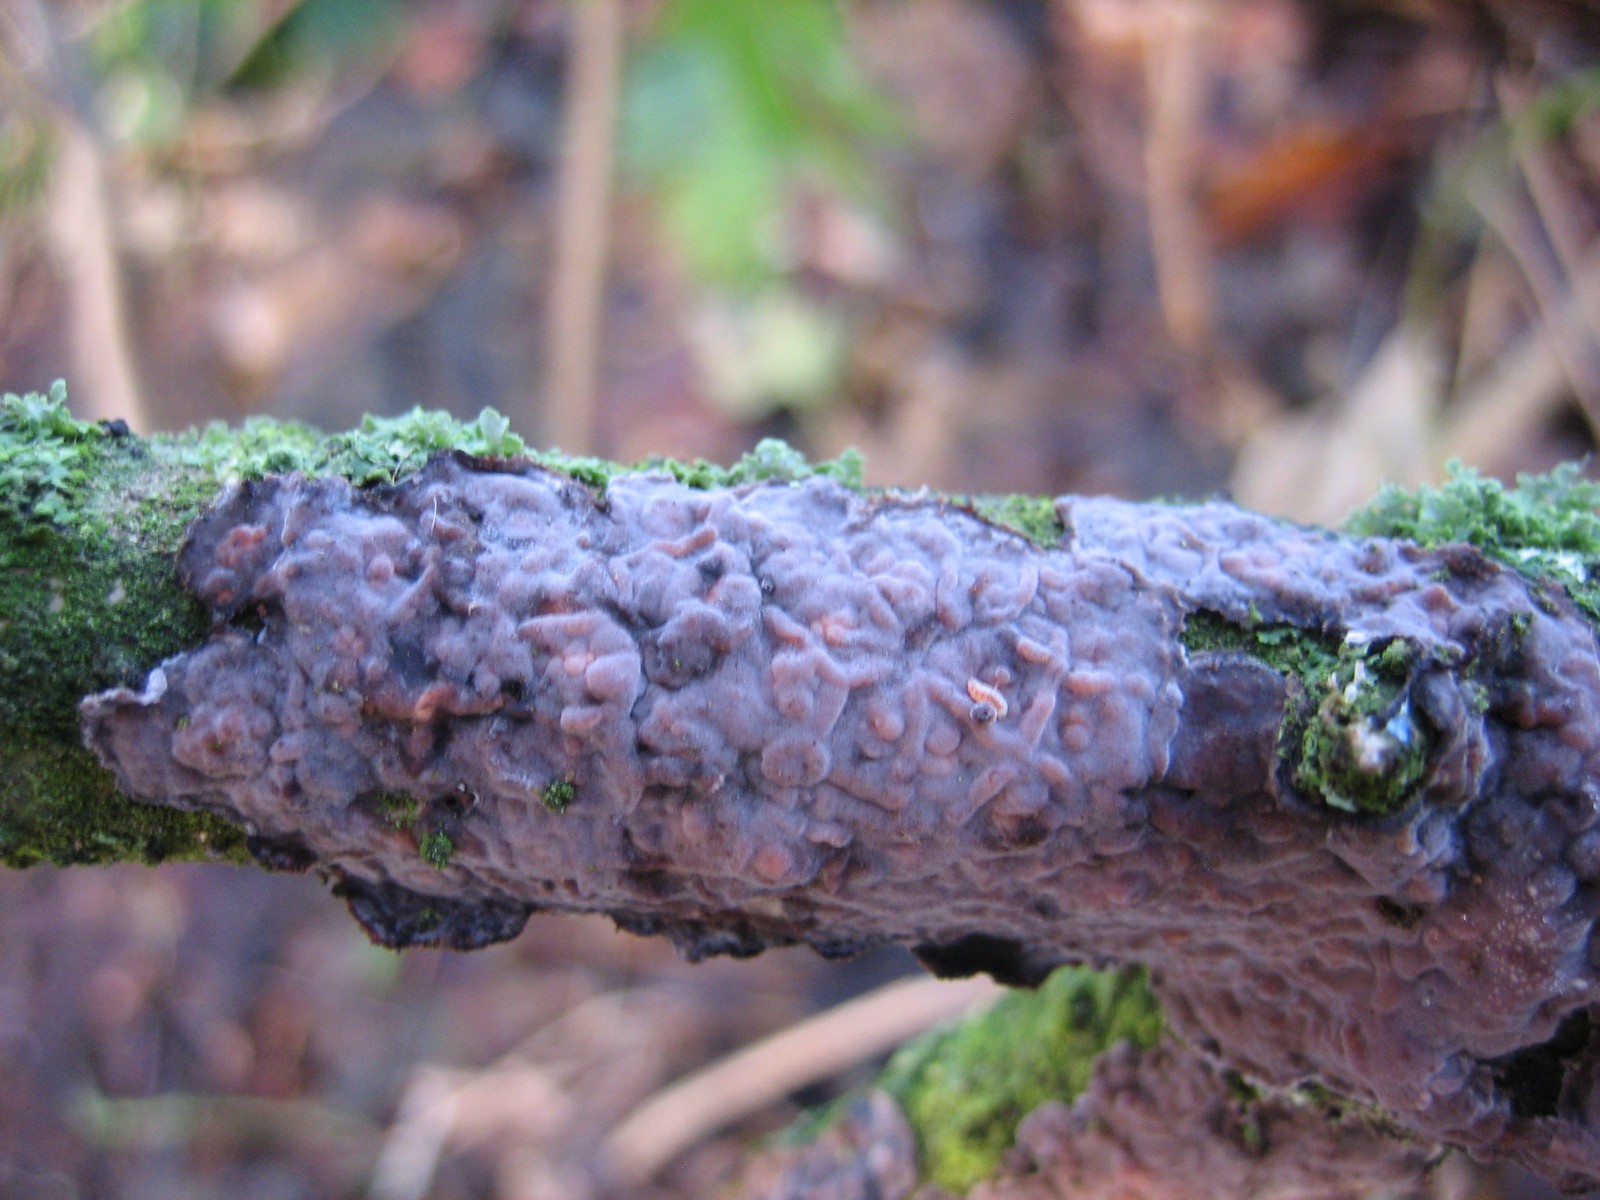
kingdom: Fungi
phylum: Basidiomycota
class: Agaricomycetes
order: Russulales
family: Peniophoraceae
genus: Peniophora
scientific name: Peniophora quercina
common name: ege-voksskind
